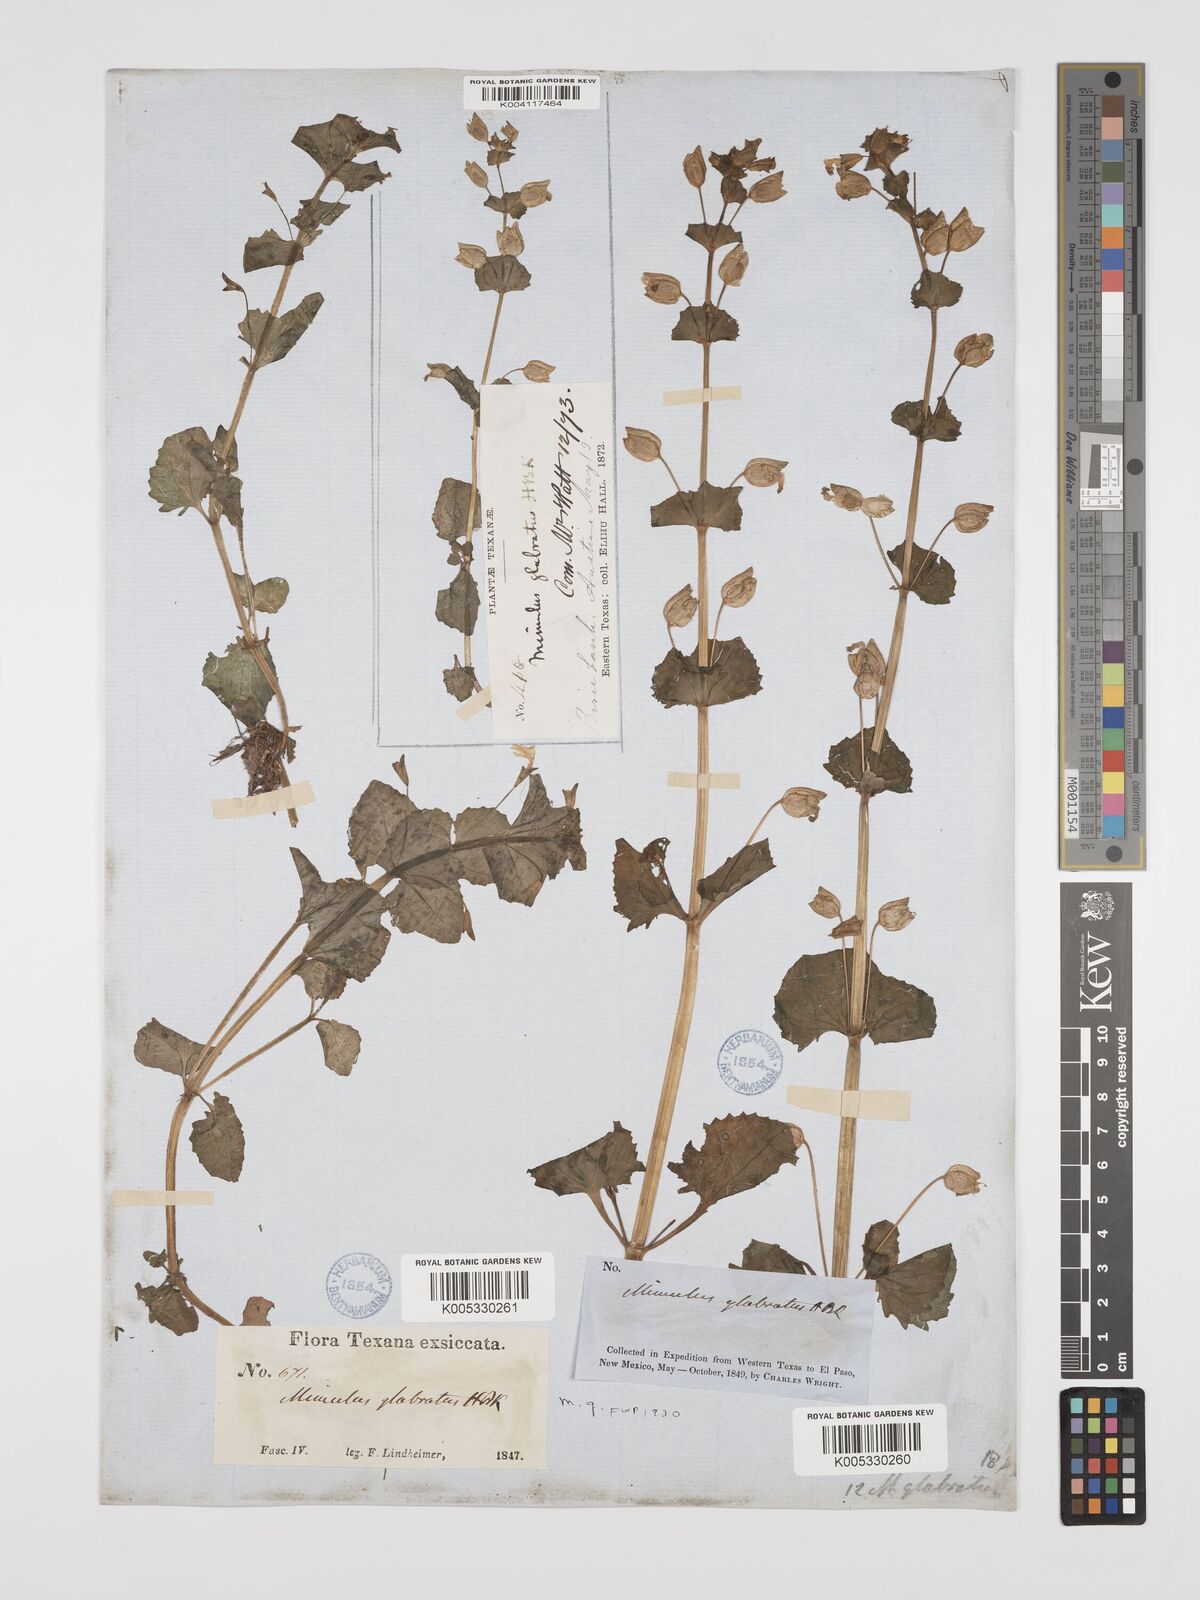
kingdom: Plantae
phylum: Tracheophyta
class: Magnoliopsida
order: Lamiales
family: Phrymaceae
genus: Mimulus
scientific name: Mimulus
